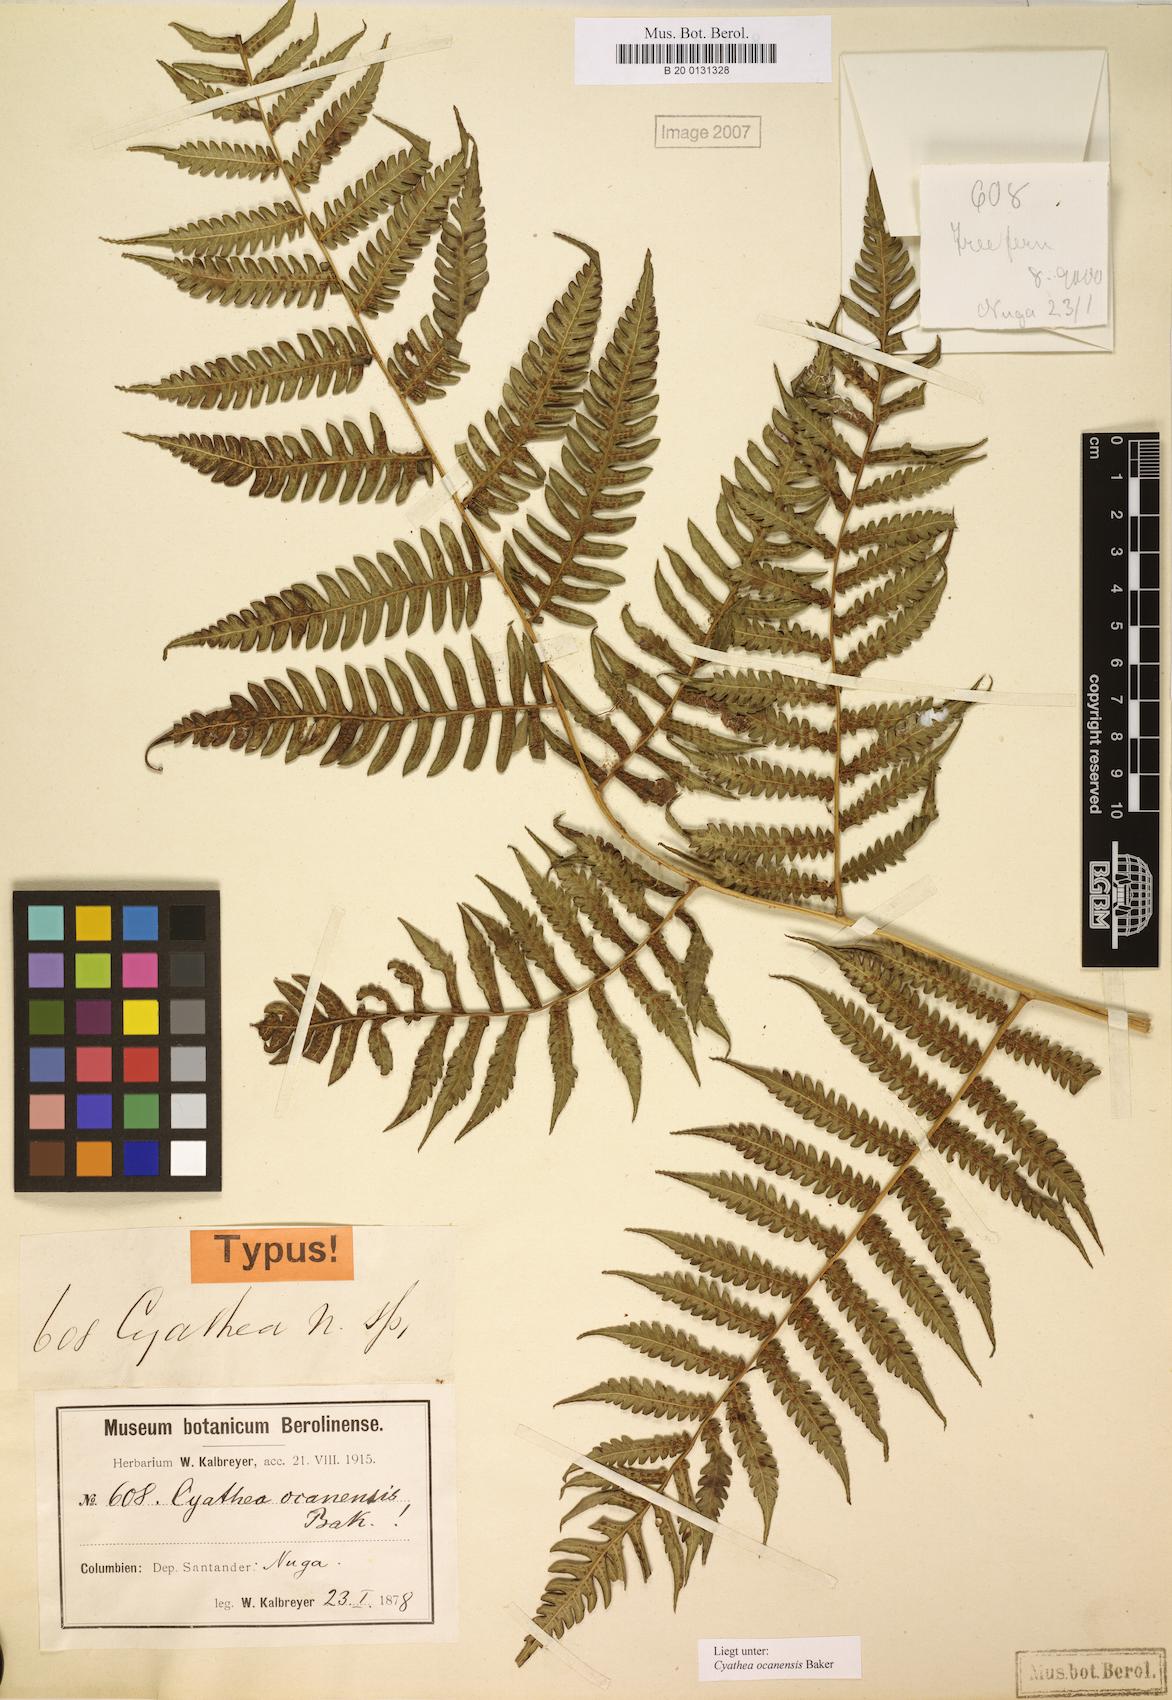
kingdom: Plantae
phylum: Tracheophyta
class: Polypodiopsida
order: Cyatheales
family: Cyatheaceae
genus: Cyathea
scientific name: Cyathea caracasana
